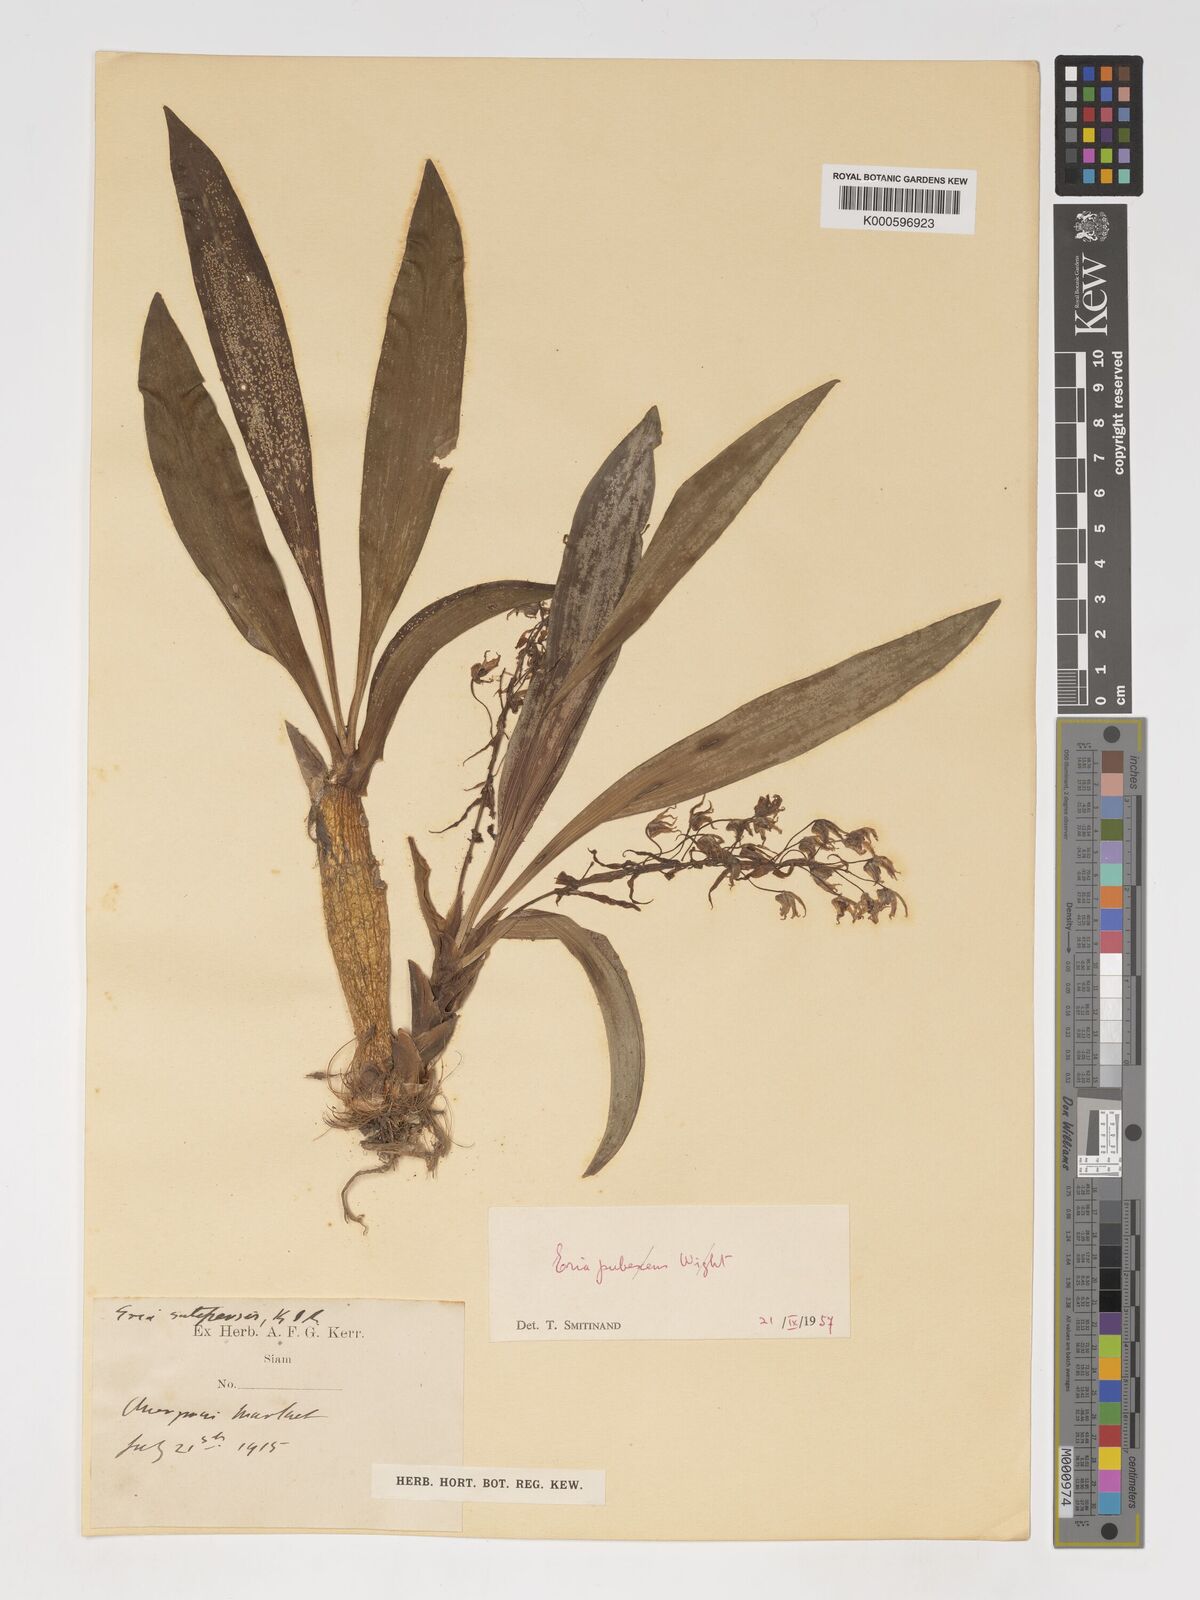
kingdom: Plantae
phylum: Tracheophyta
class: Liliopsida
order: Asparagales
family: Orchidaceae
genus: Pinalia
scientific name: Pinalia sutepensis
